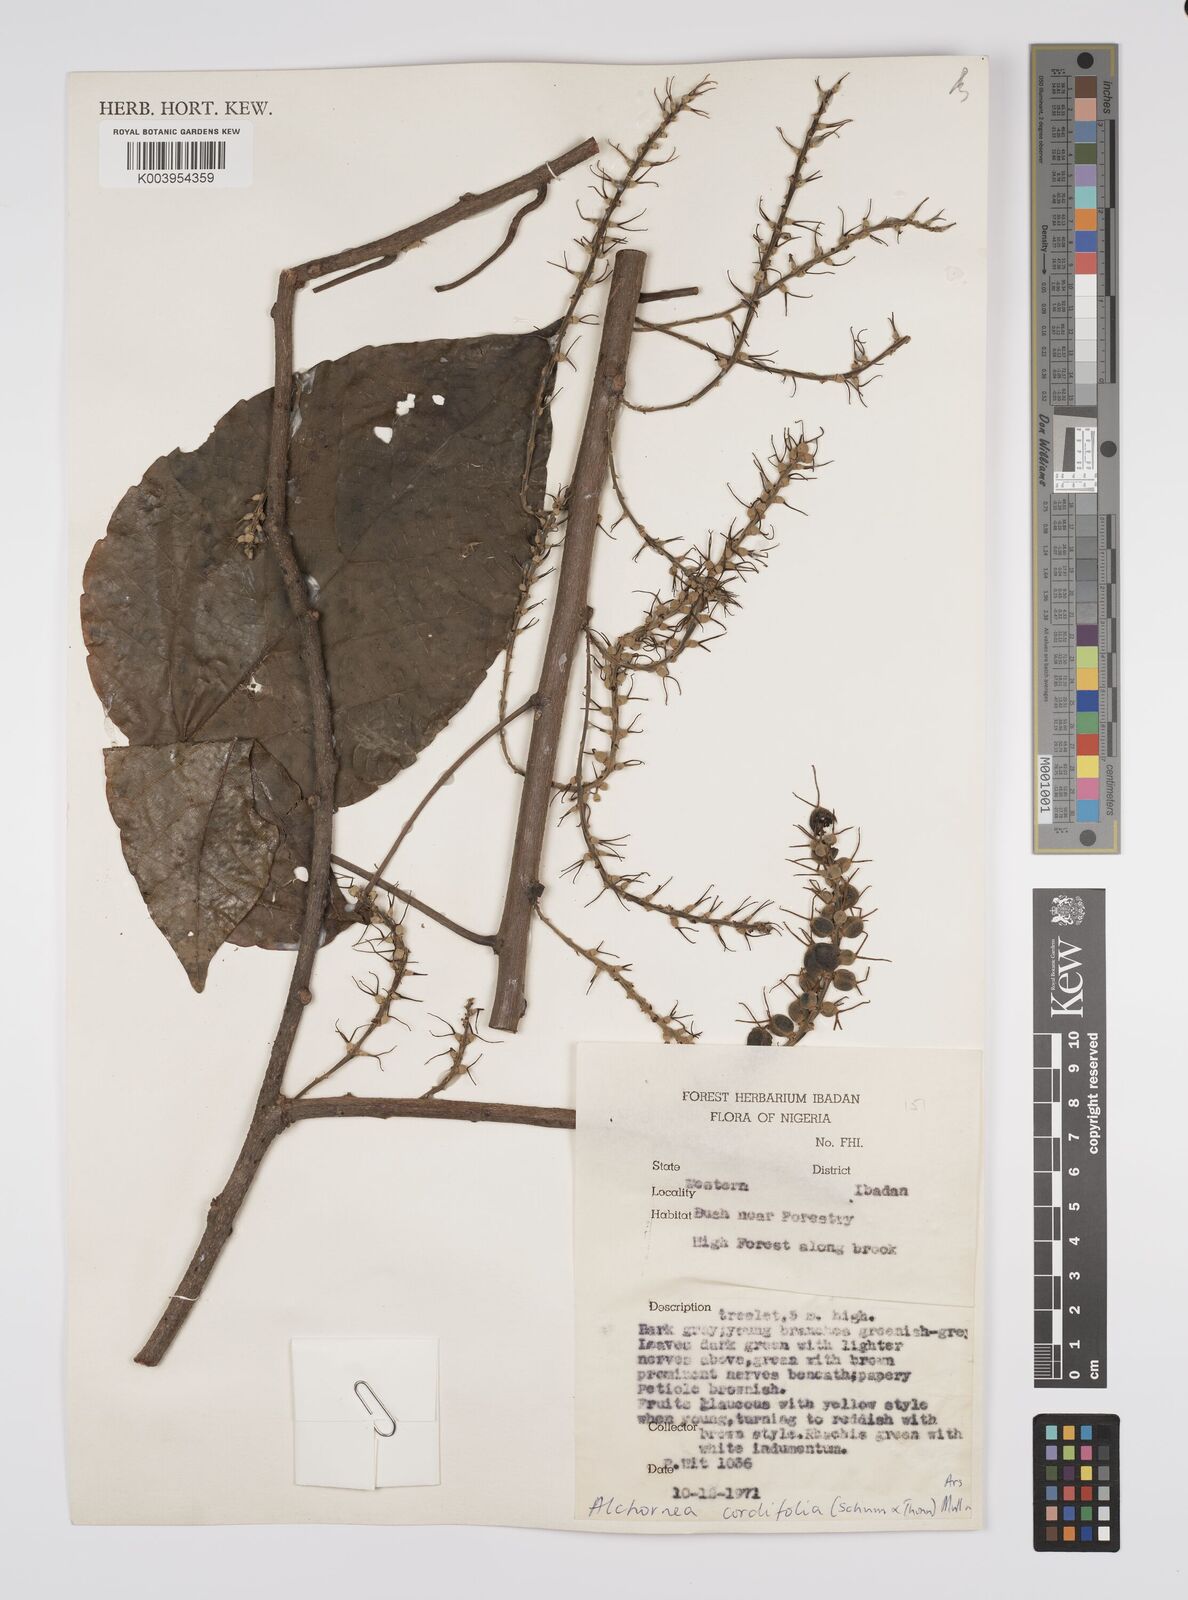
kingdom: Plantae
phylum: Tracheophyta
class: Magnoliopsida
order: Malpighiales
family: Euphorbiaceae
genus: Alchornea
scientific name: Alchornea cordifolia
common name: Christmasbush
